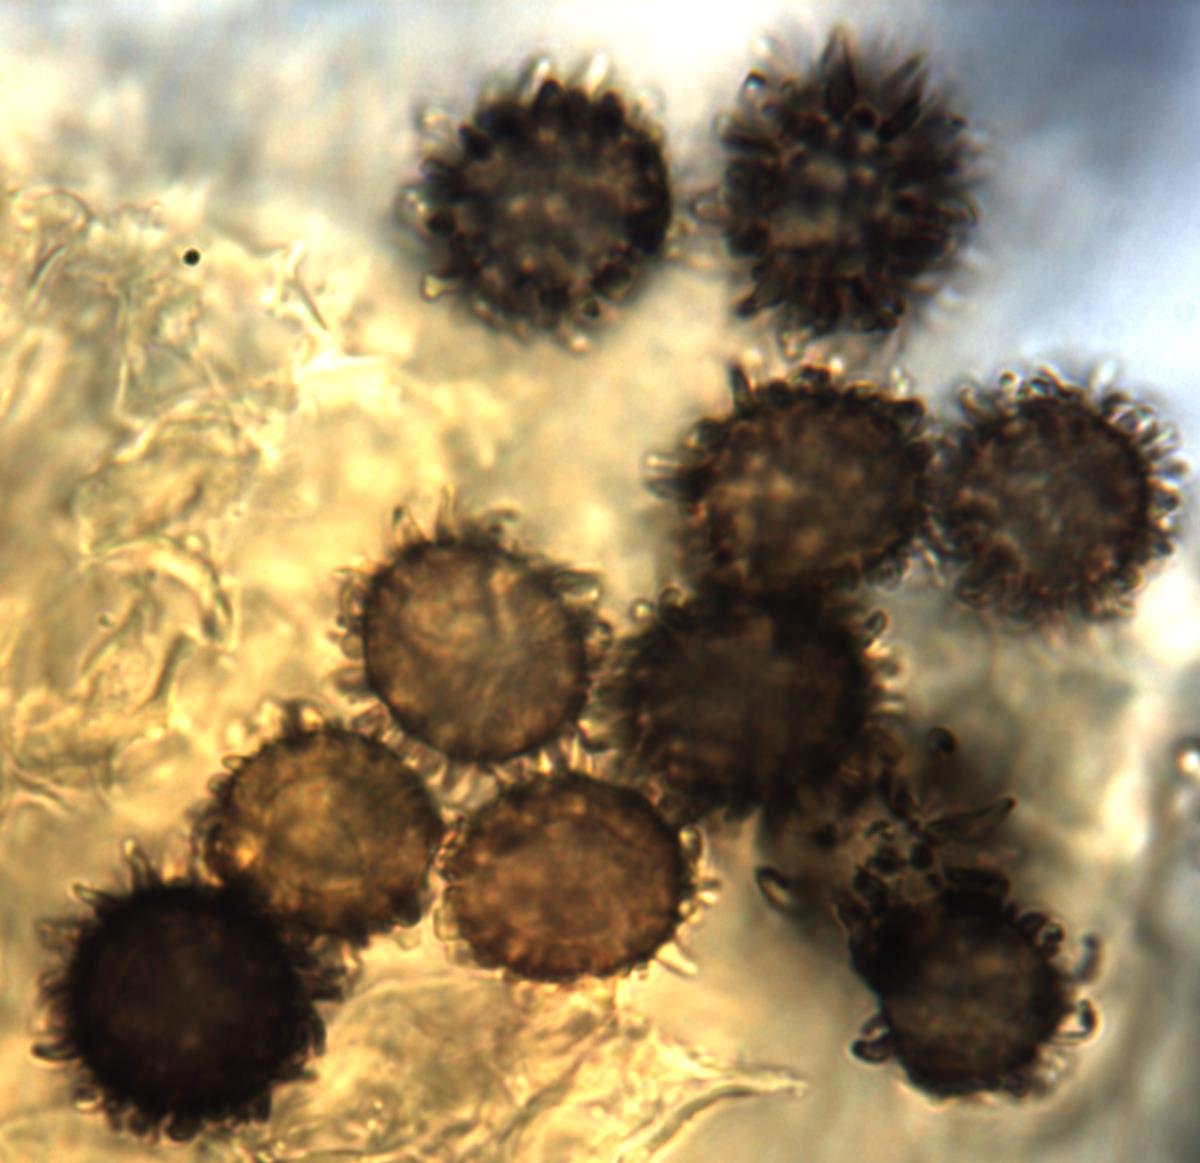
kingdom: Fungi
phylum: Basidiomycota
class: Agaricomycetes
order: Russulales
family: Russulaceae
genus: Russula
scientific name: Russula osphranticarpa
